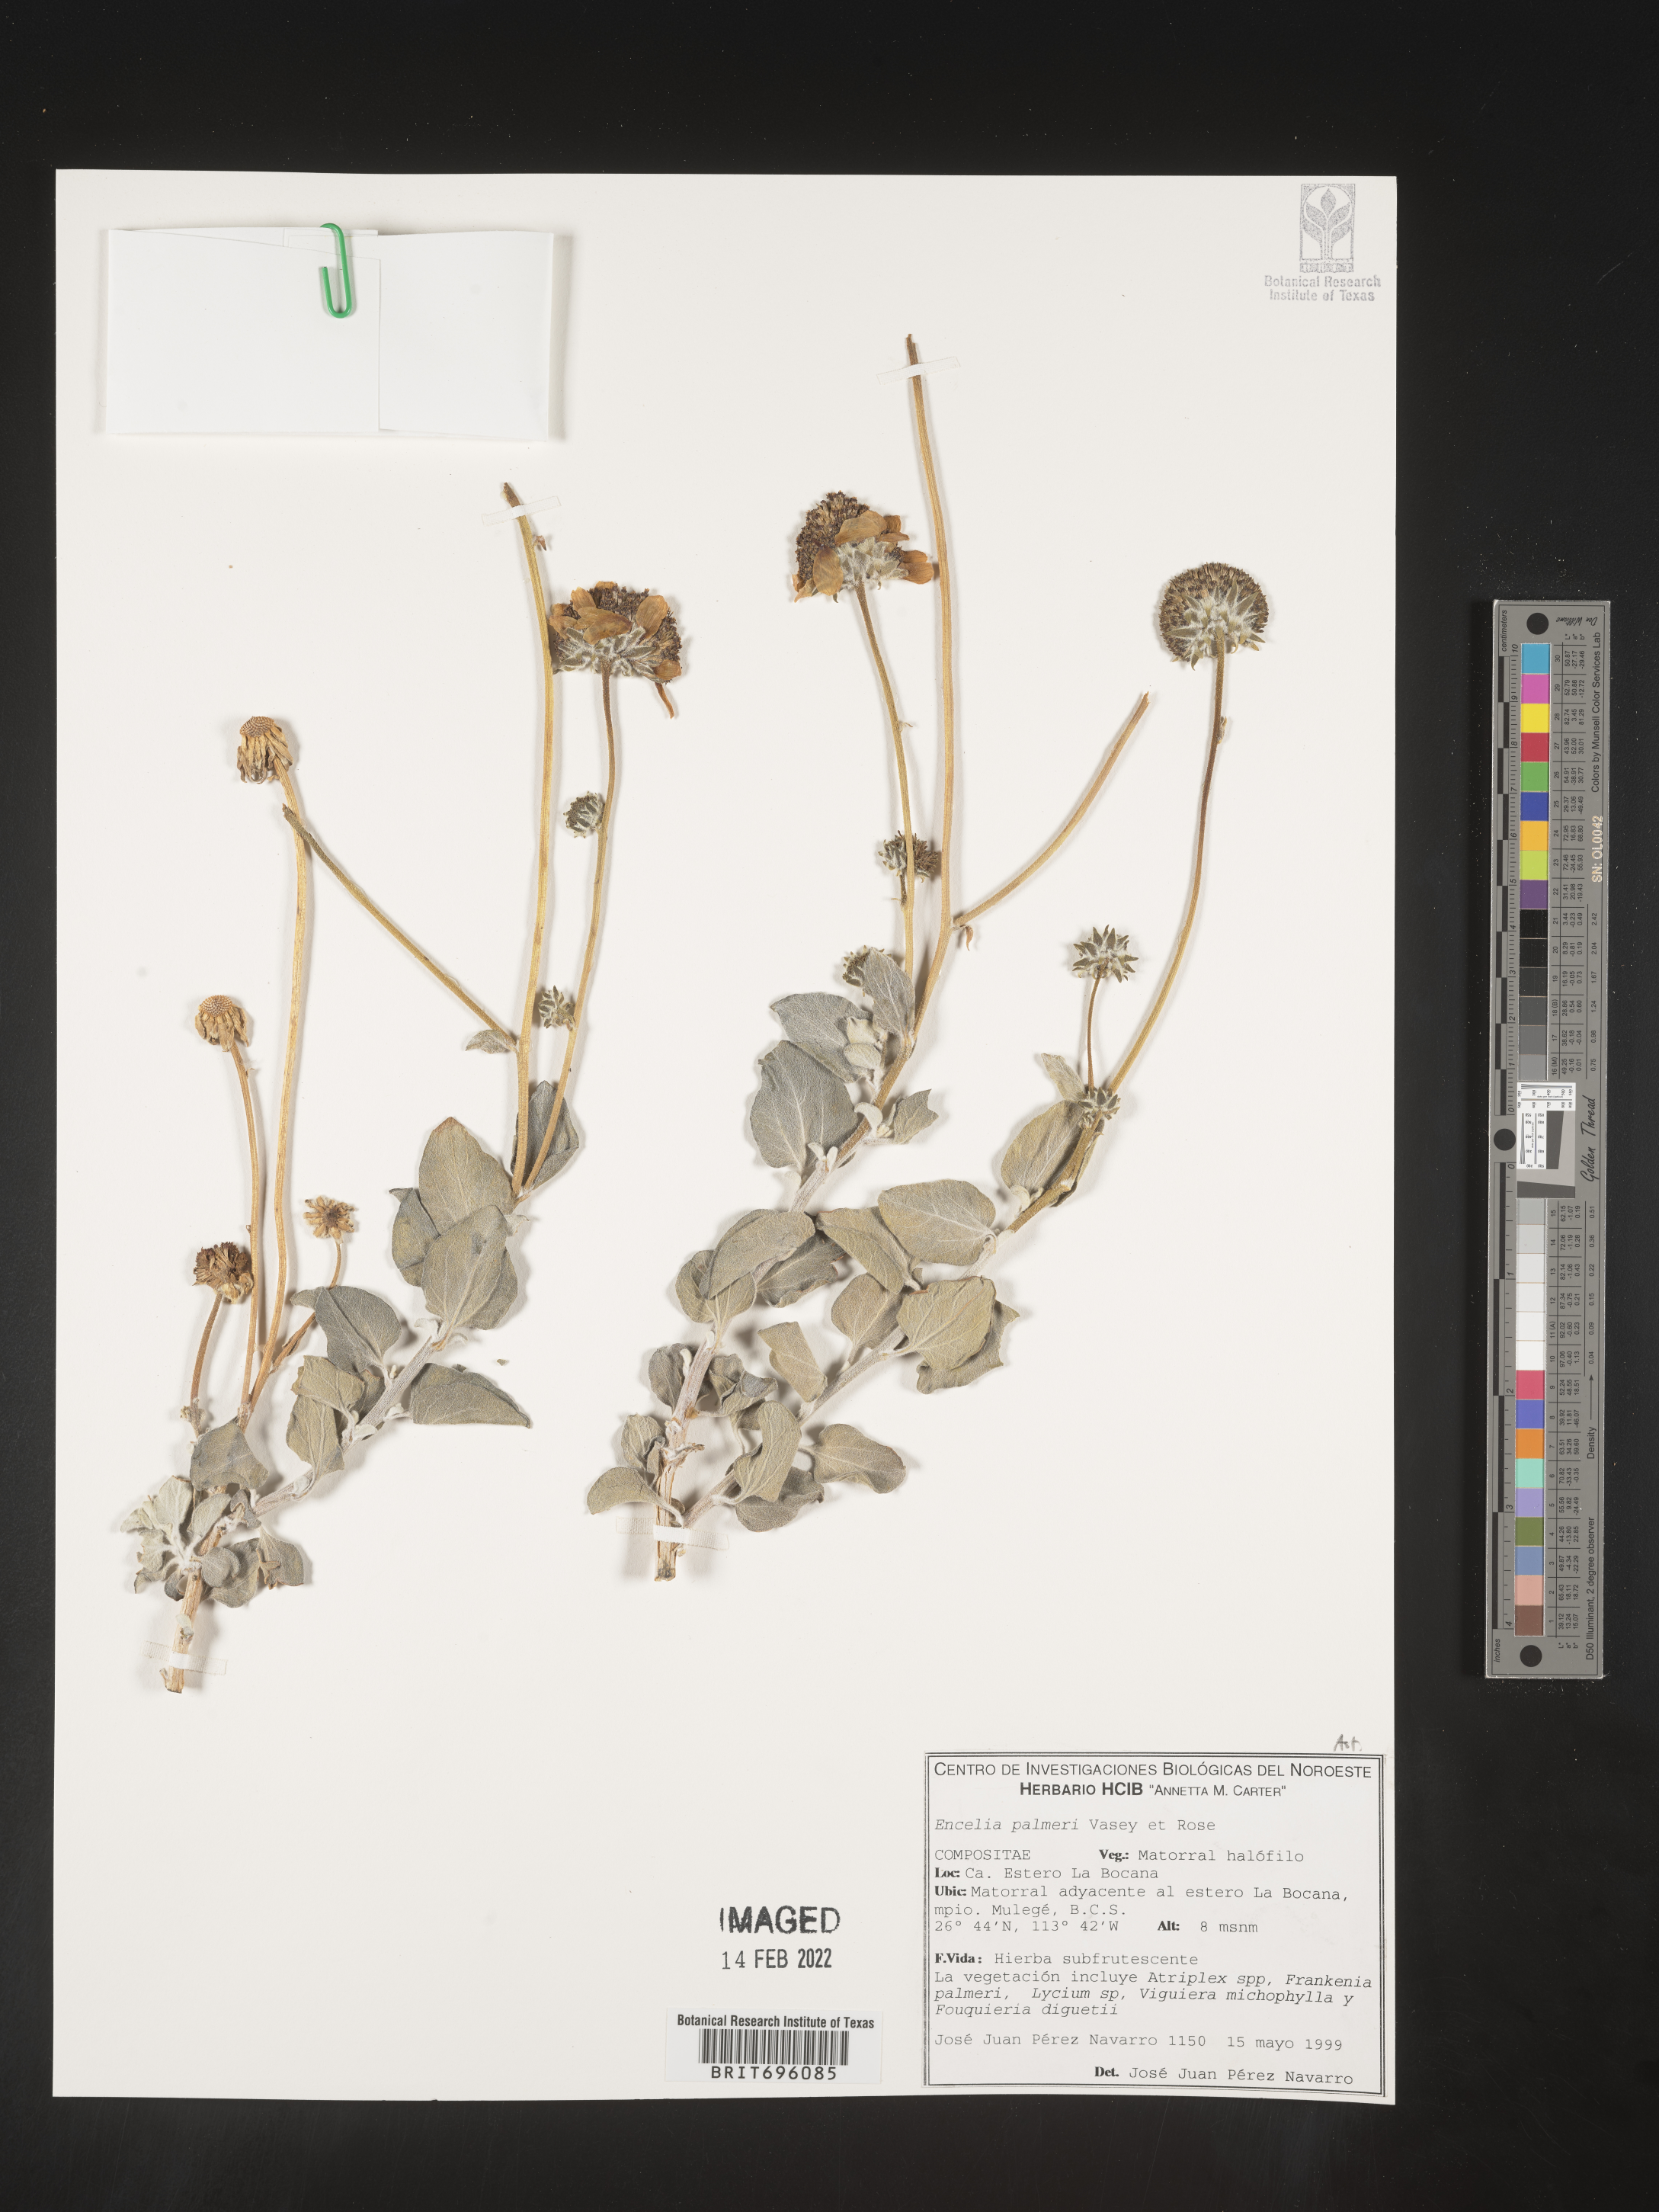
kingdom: Plantae
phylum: Tracheophyta
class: Magnoliopsida
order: Asterales
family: Asteraceae
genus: Encelia
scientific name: Encelia
